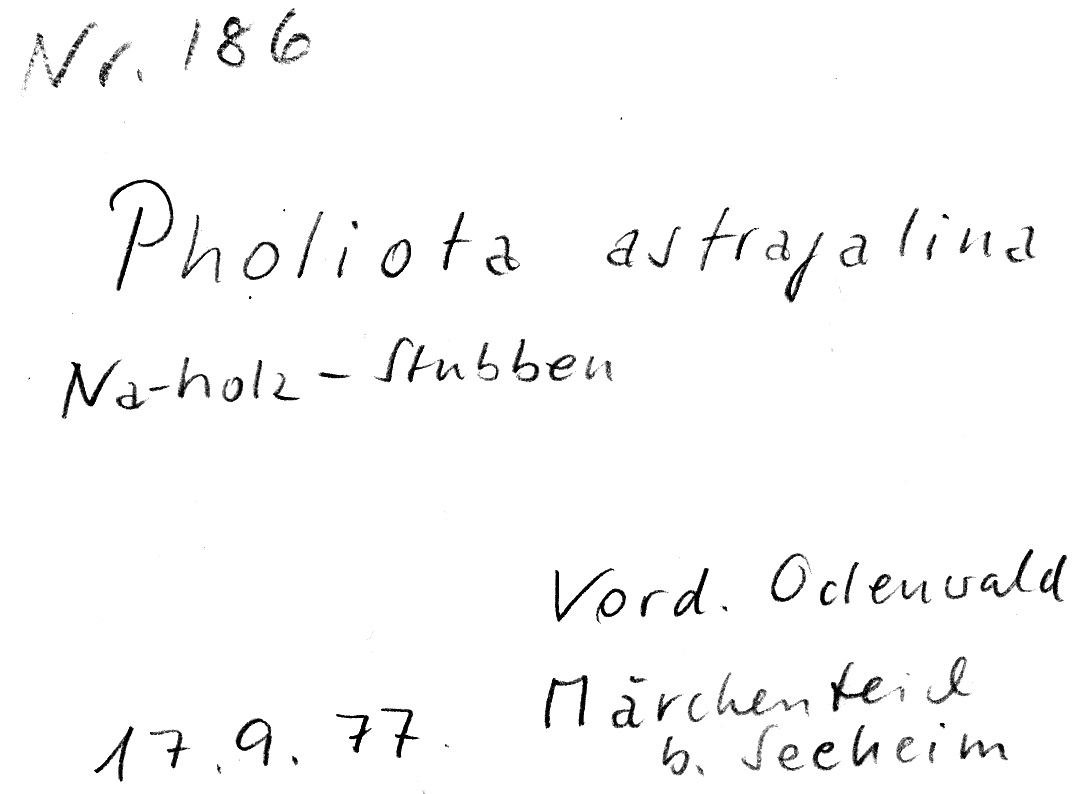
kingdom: Fungi
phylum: Basidiomycota
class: Agaricomycetes
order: Agaricales
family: Strophariaceae
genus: Pyrrhulomyces
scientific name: Pyrrhulomyces astragalinus
